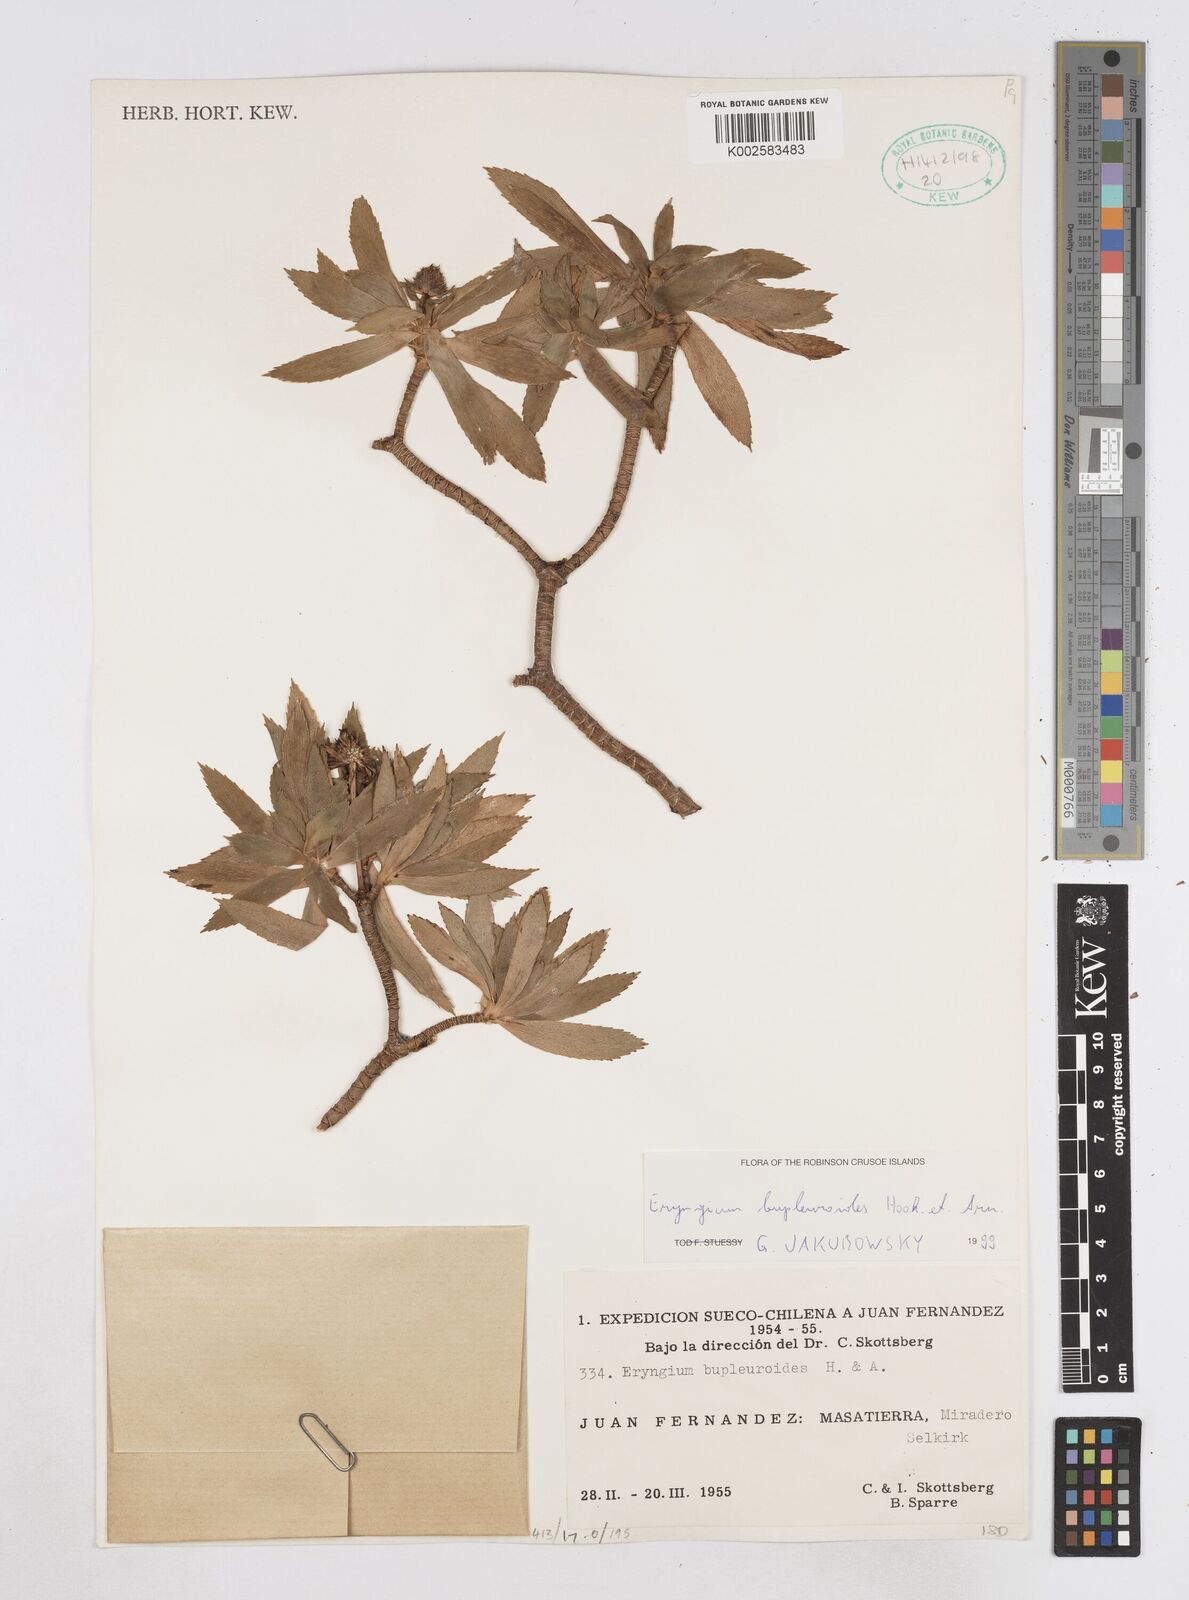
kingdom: Plantae
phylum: Tracheophyta
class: Magnoliopsida
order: Apiales
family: Apiaceae
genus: Eryngium
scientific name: Eryngium bupleuroides
